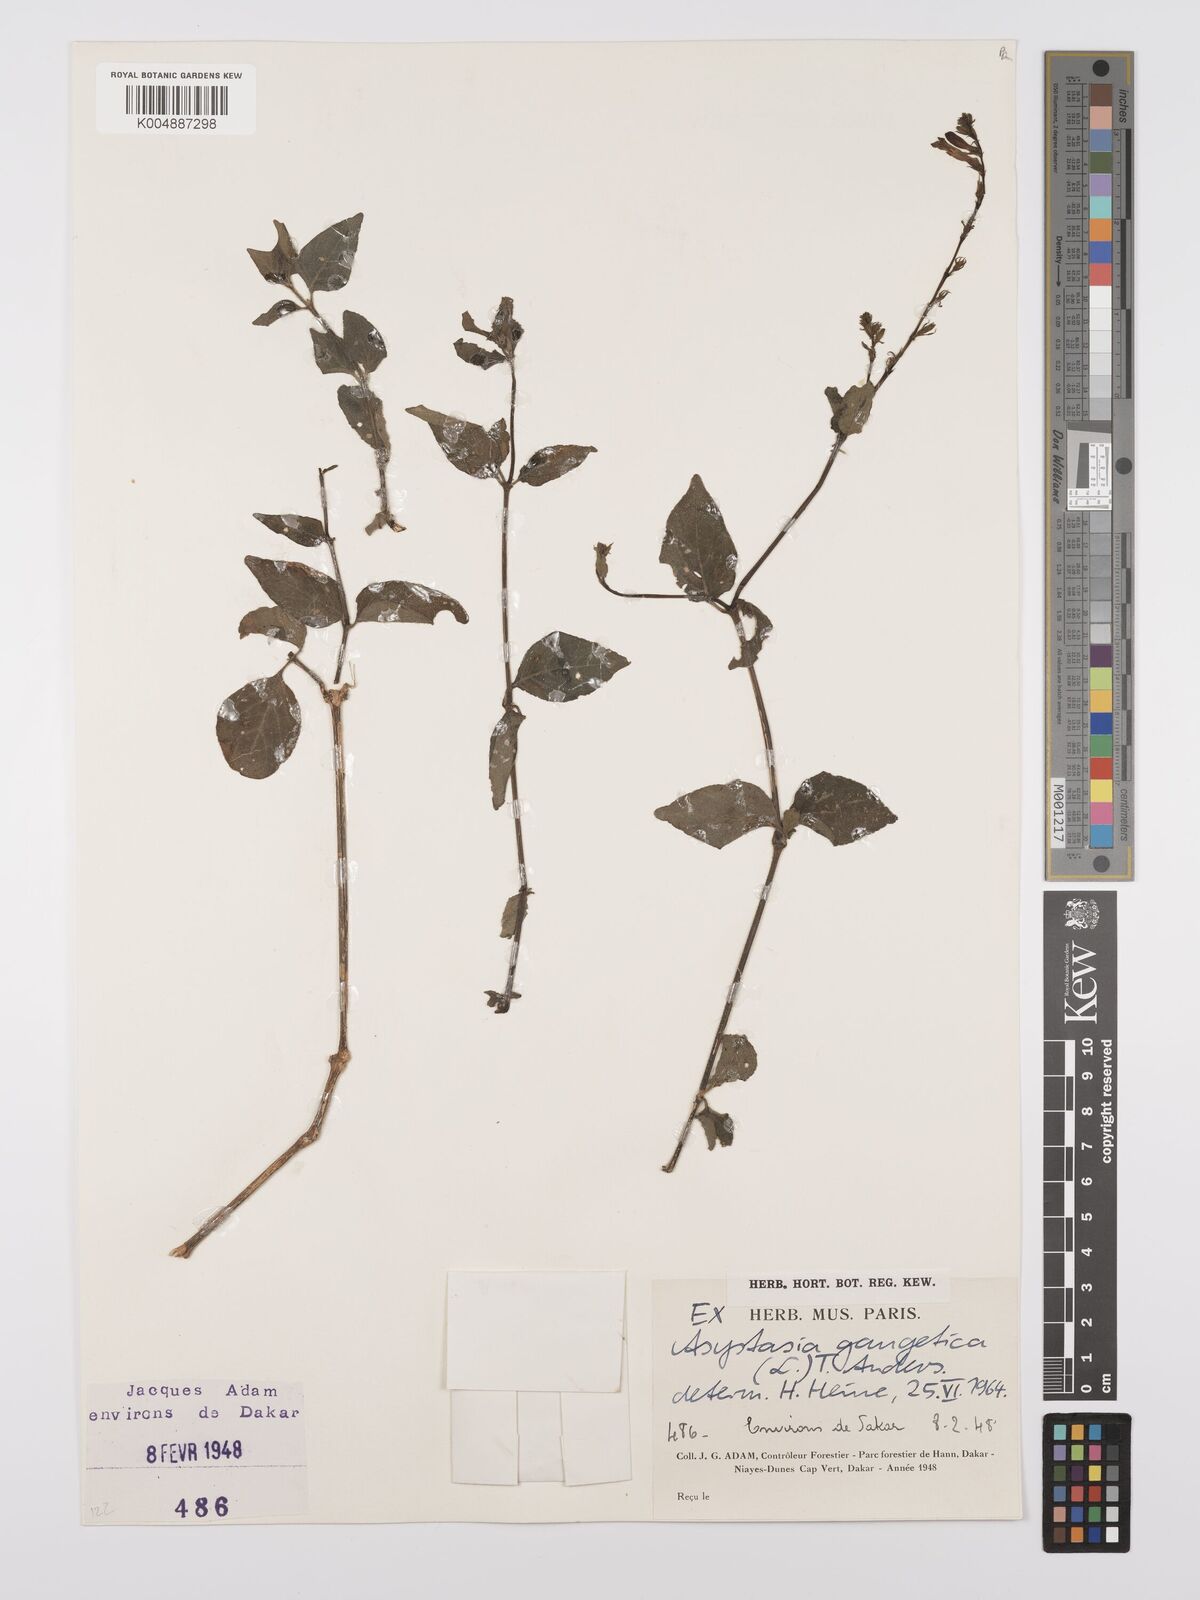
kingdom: Plantae
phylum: Tracheophyta
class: Magnoliopsida
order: Lamiales
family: Acanthaceae
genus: Asystasia
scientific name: Asystasia gangetica
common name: Chinese violet
